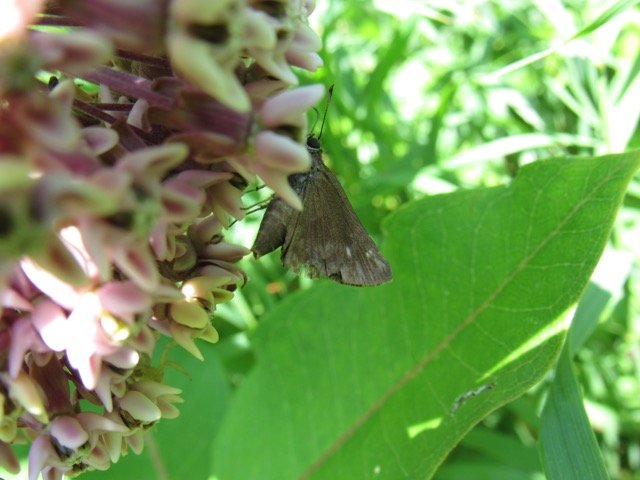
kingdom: Animalia
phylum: Arthropoda
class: Insecta
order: Lepidoptera
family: Hesperiidae
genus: Polites
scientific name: Polites egeremet
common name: Northern Broken-Dash
